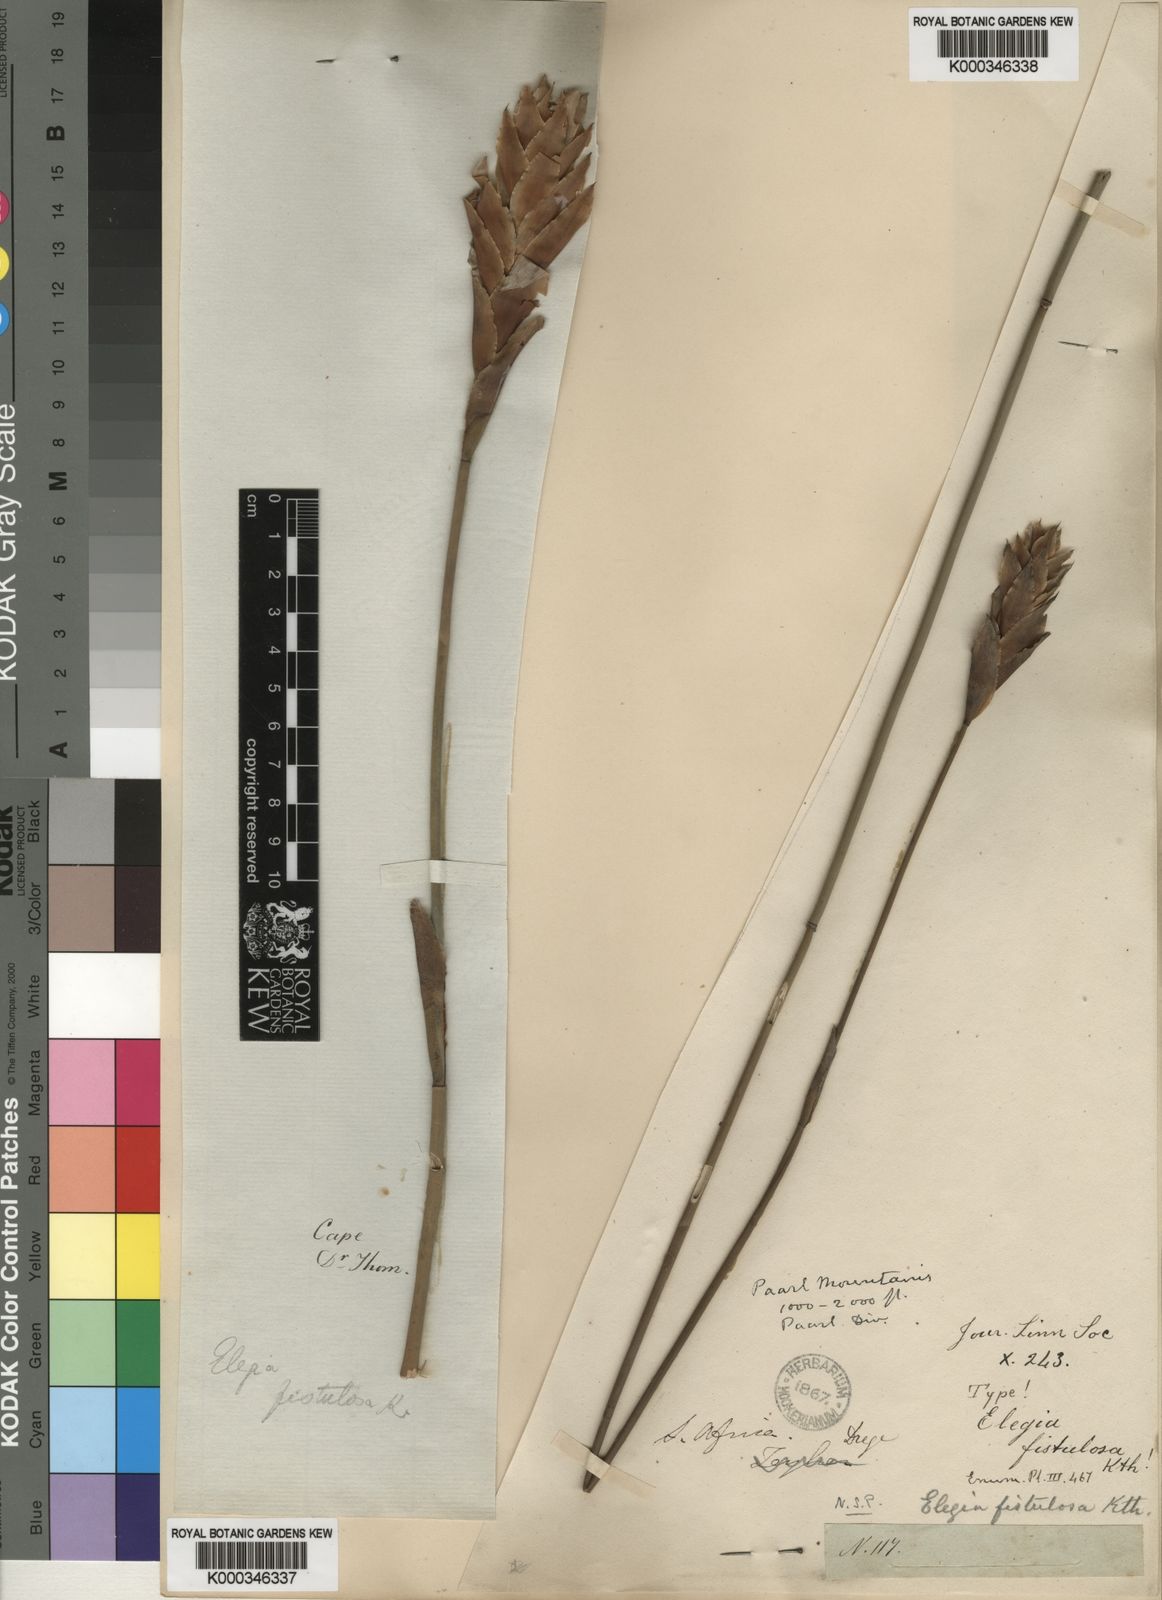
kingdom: Plantae
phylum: Tracheophyta
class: Liliopsida
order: Poales
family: Restionaceae
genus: Elegia
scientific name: Elegia fistulosa
